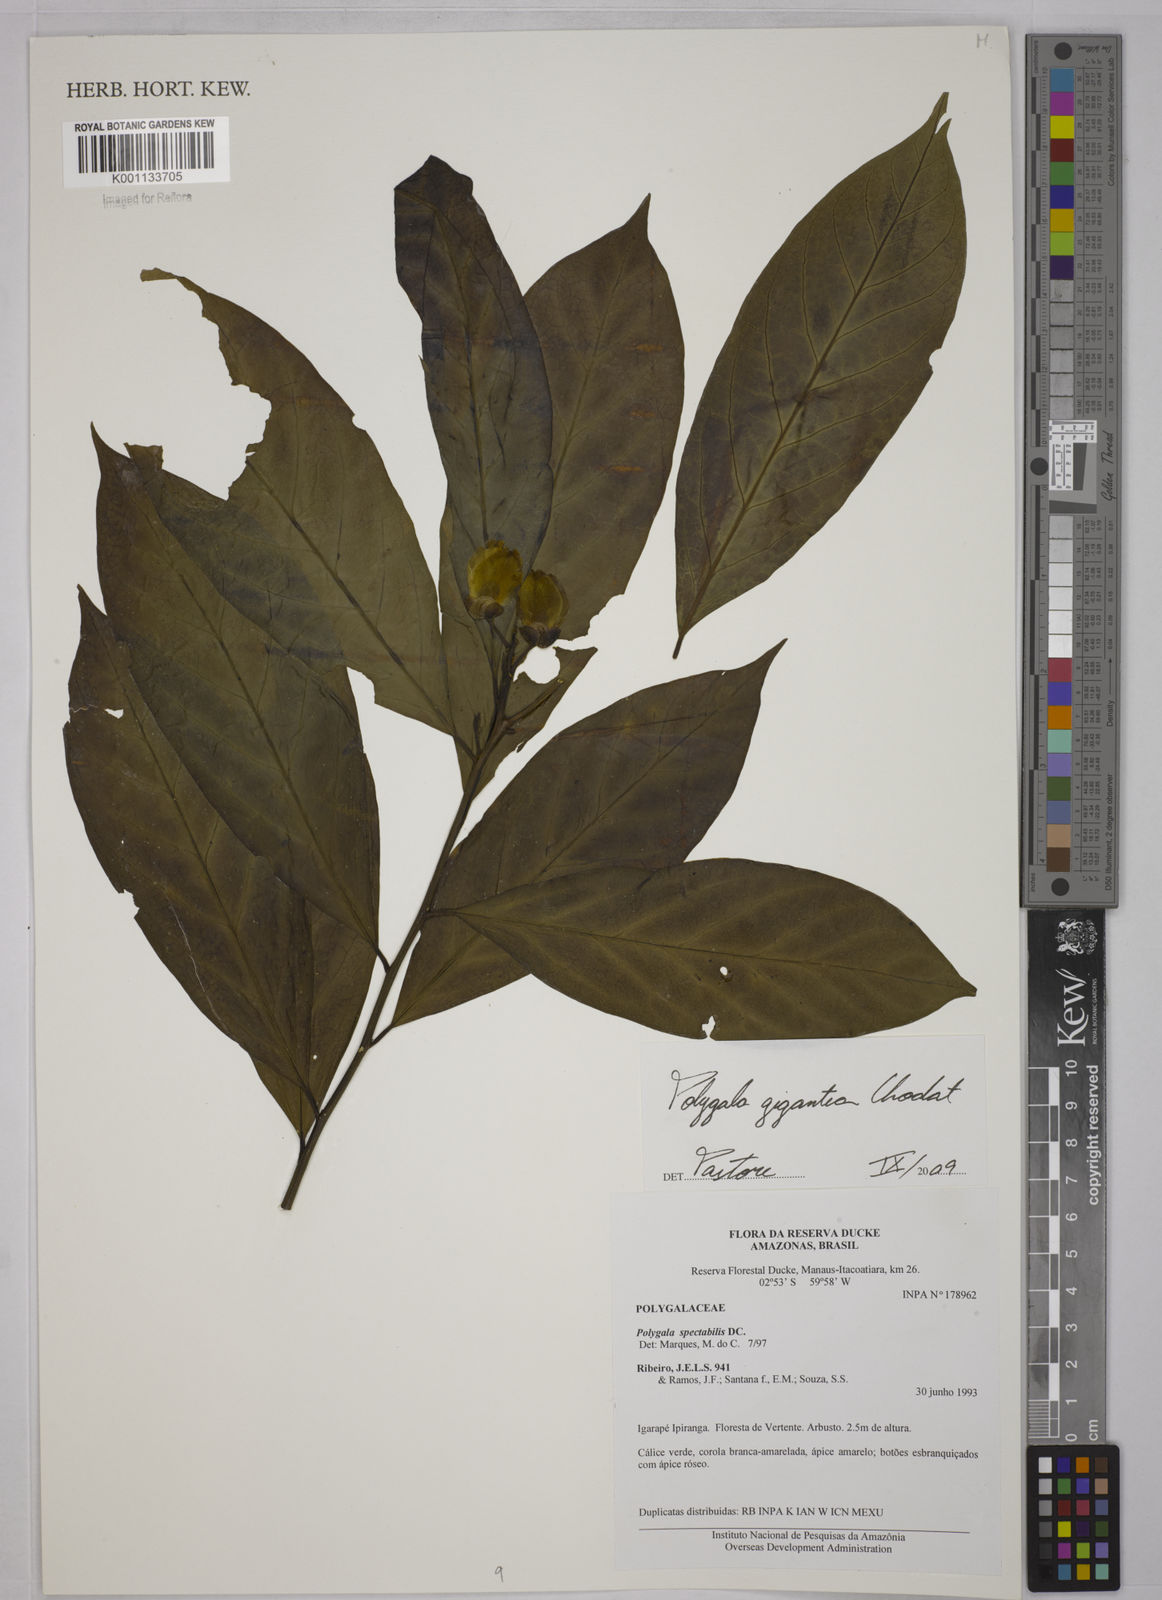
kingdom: Plantae
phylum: Tracheophyta
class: Magnoliopsida
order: Fabales
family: Polygalaceae
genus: Caamembeca
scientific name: Caamembeca gigantea
